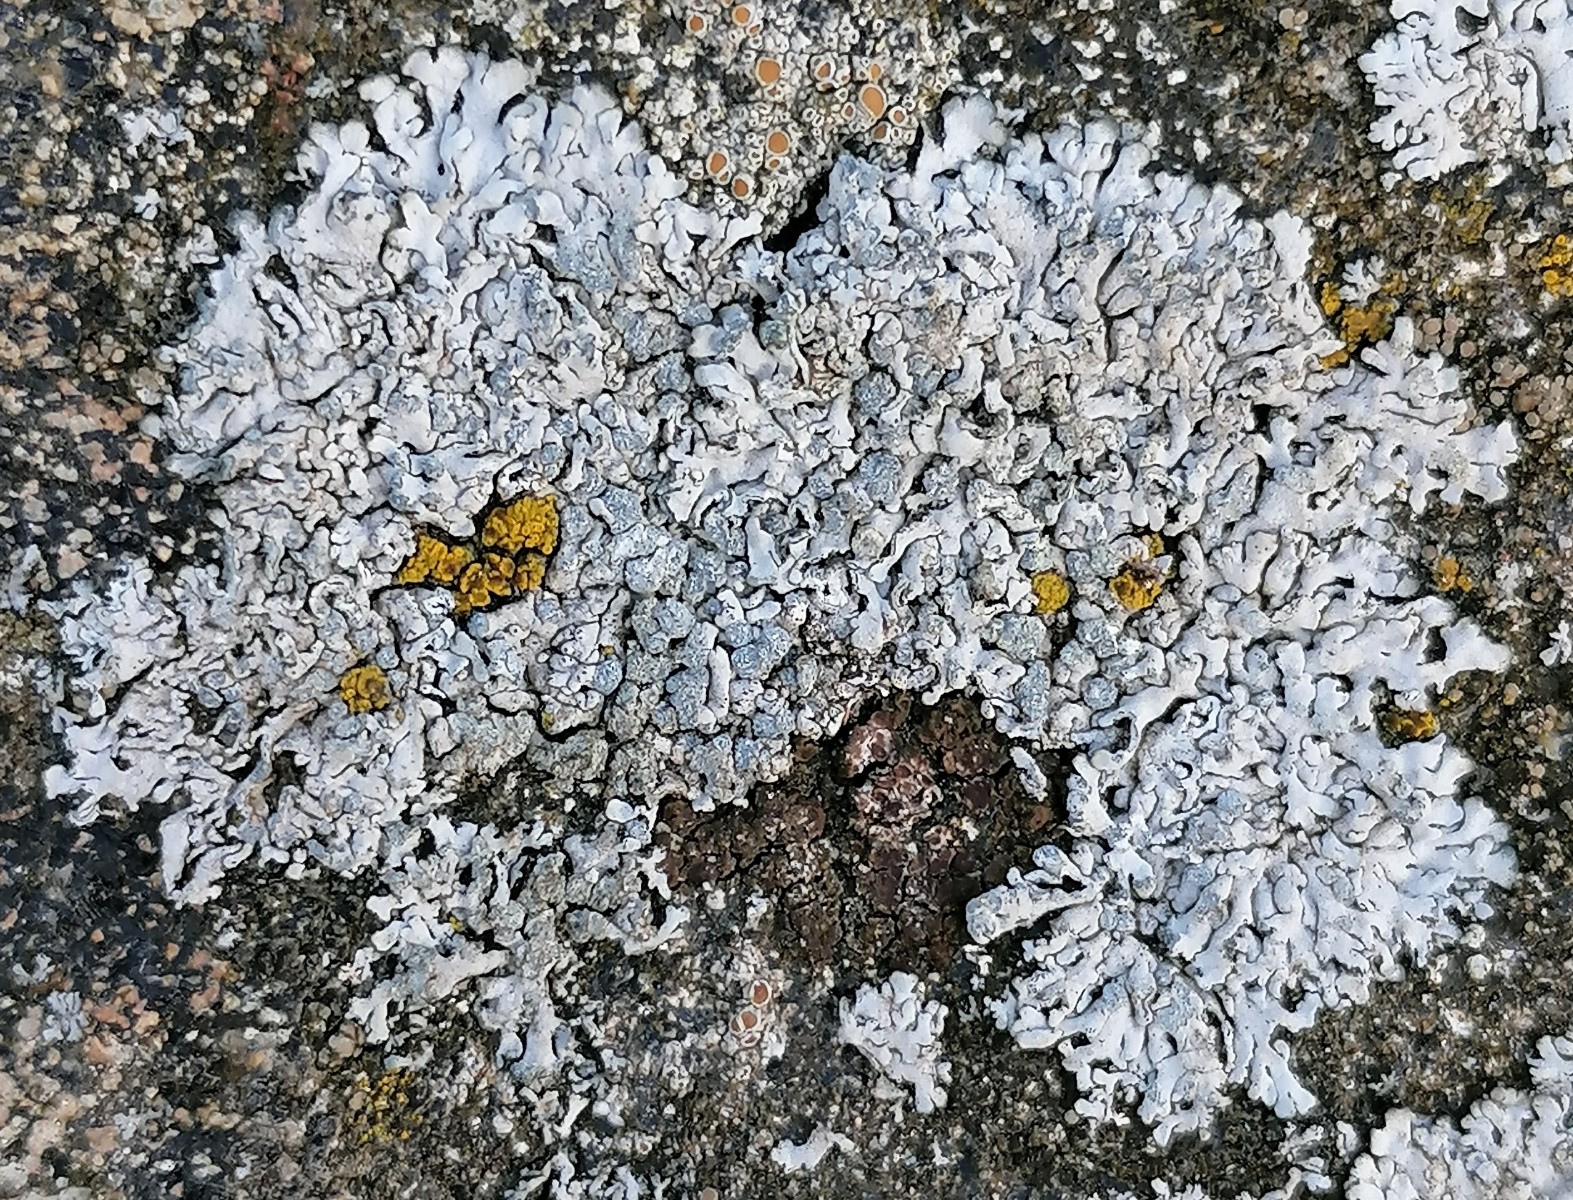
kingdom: Fungi
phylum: Ascomycota
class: Lecanoromycetes
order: Caliciales
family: Physciaceae
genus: Physcia
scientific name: Physcia caesia
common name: blågrå rosetlav
